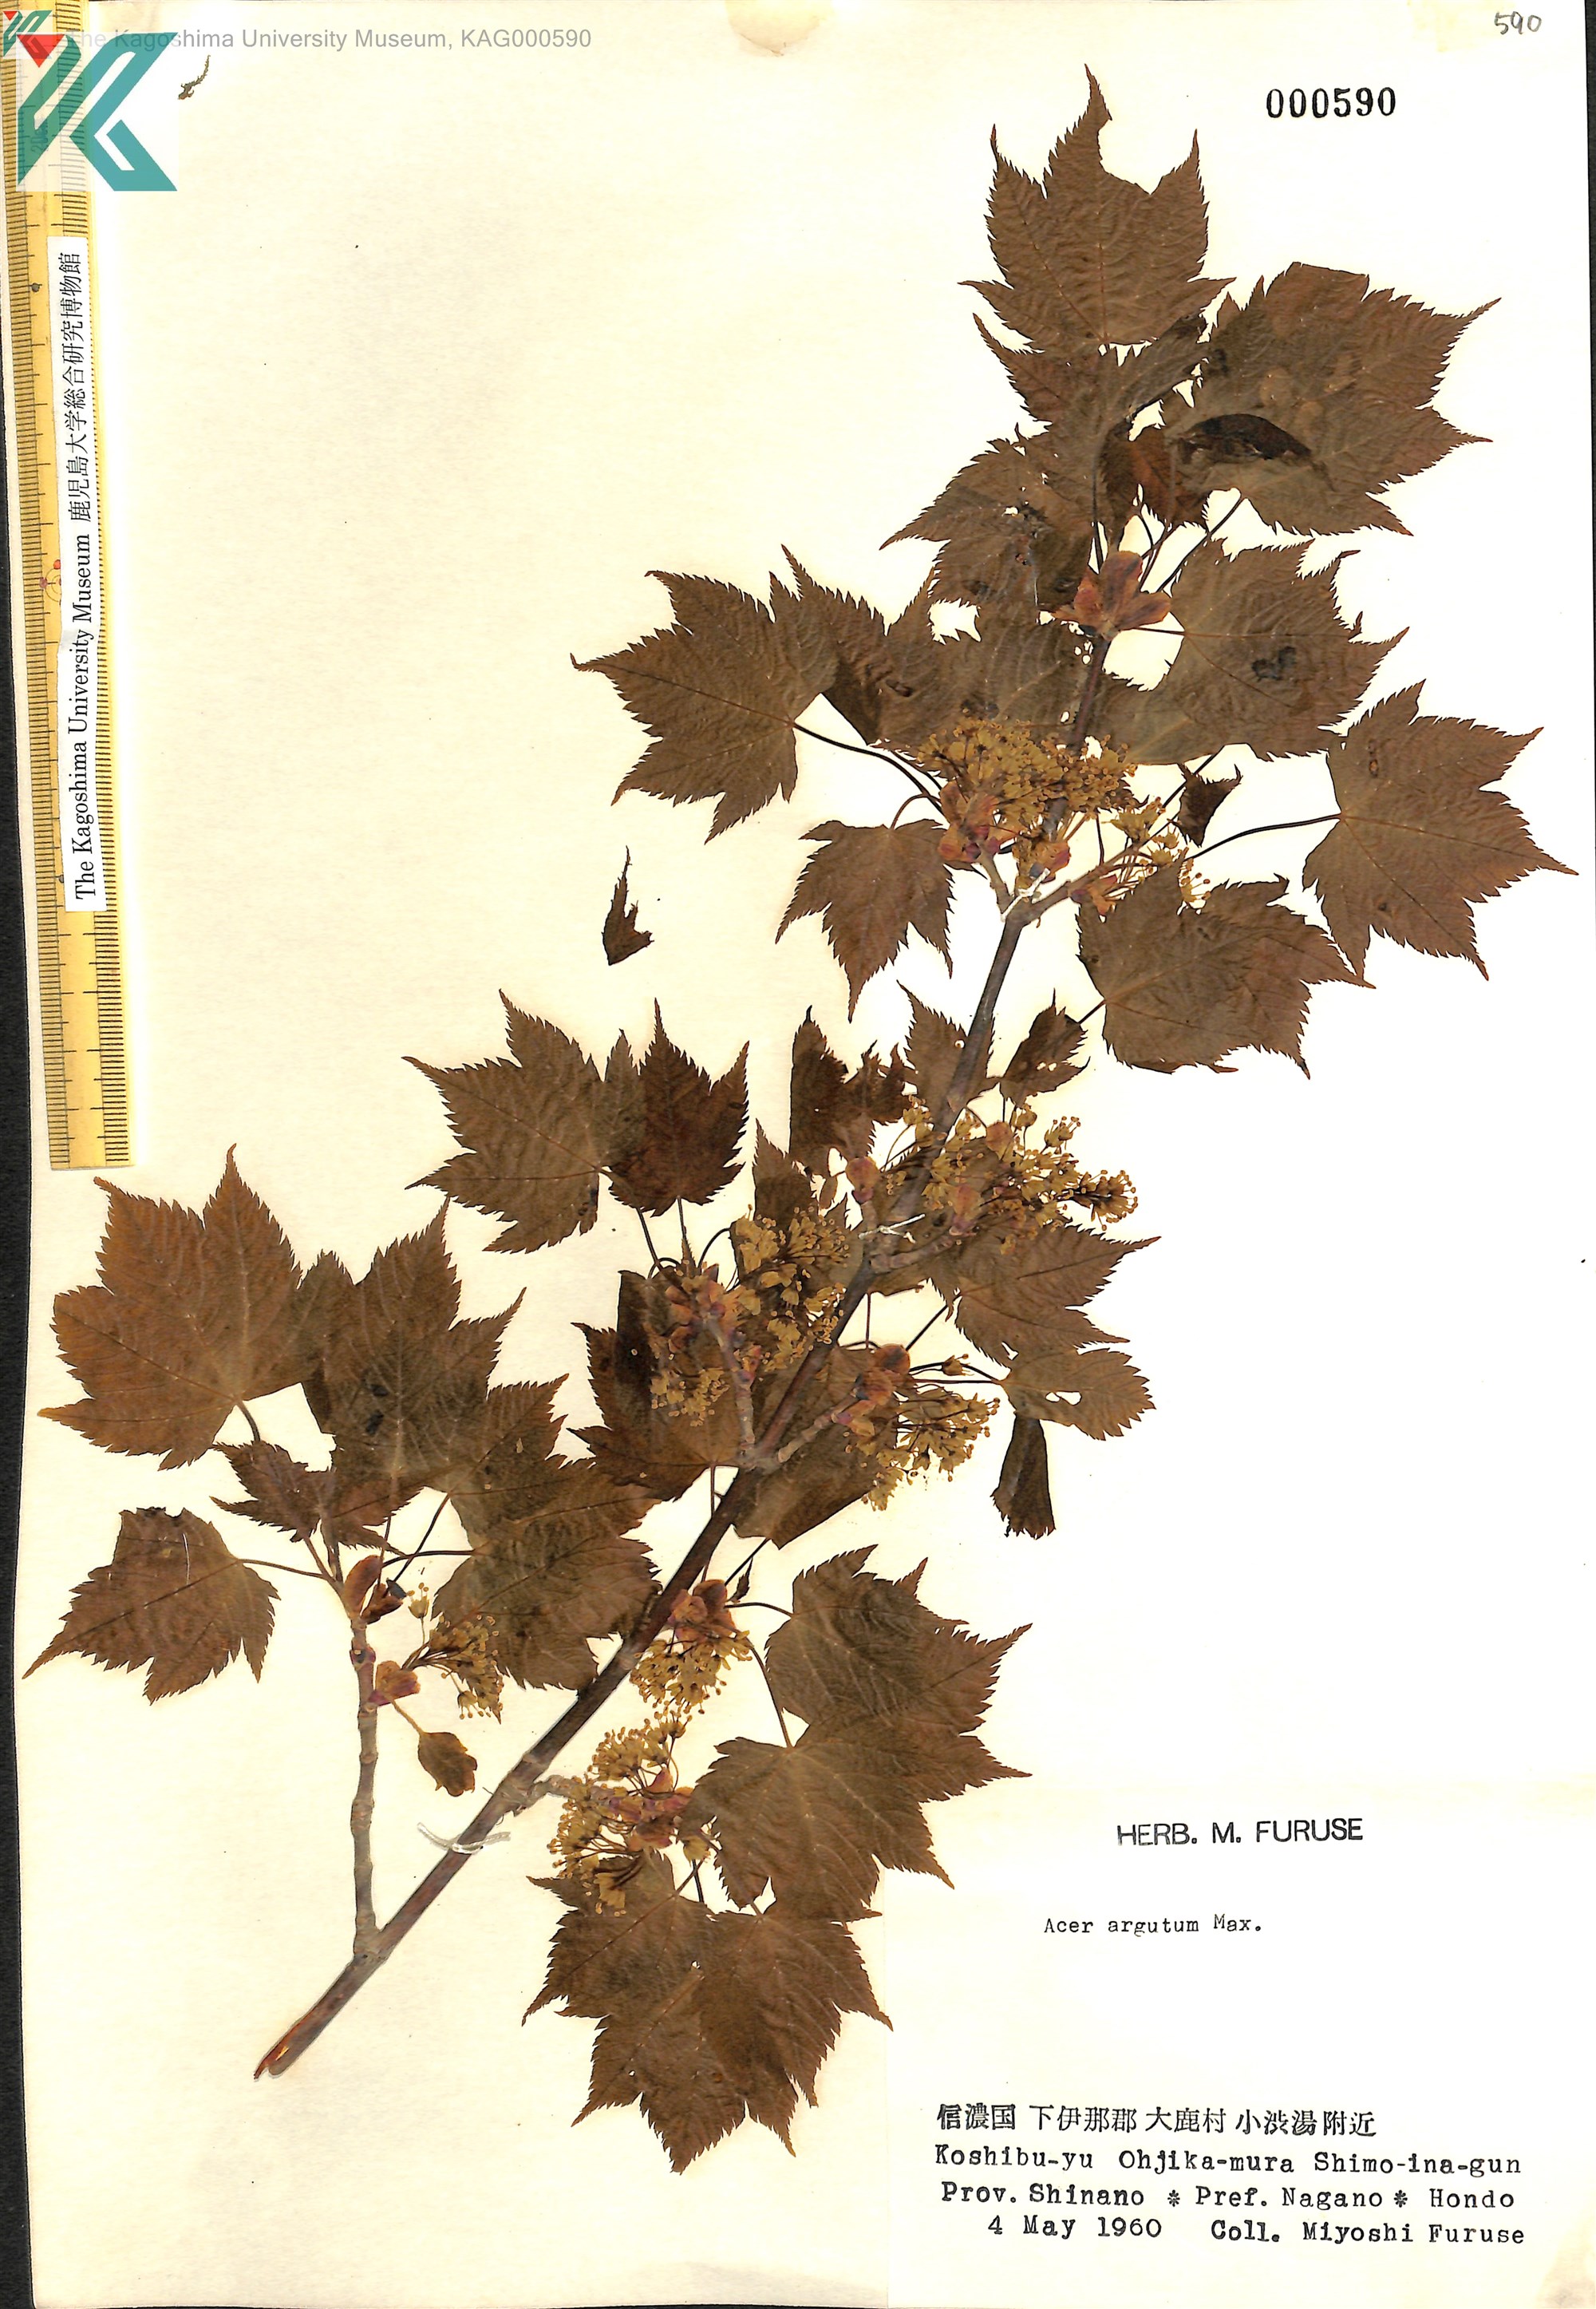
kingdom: Plantae
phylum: Tracheophyta
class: Magnoliopsida
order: Sapindales
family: Sapindaceae
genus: Acer
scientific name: Acer argutum
